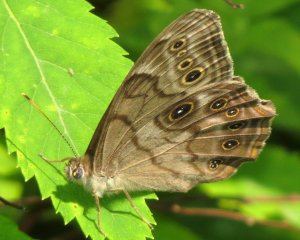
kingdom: Animalia
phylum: Arthropoda
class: Insecta
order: Lepidoptera
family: Nymphalidae
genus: Lethe
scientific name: Lethe anthedon
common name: Northern Pearly-Eye
